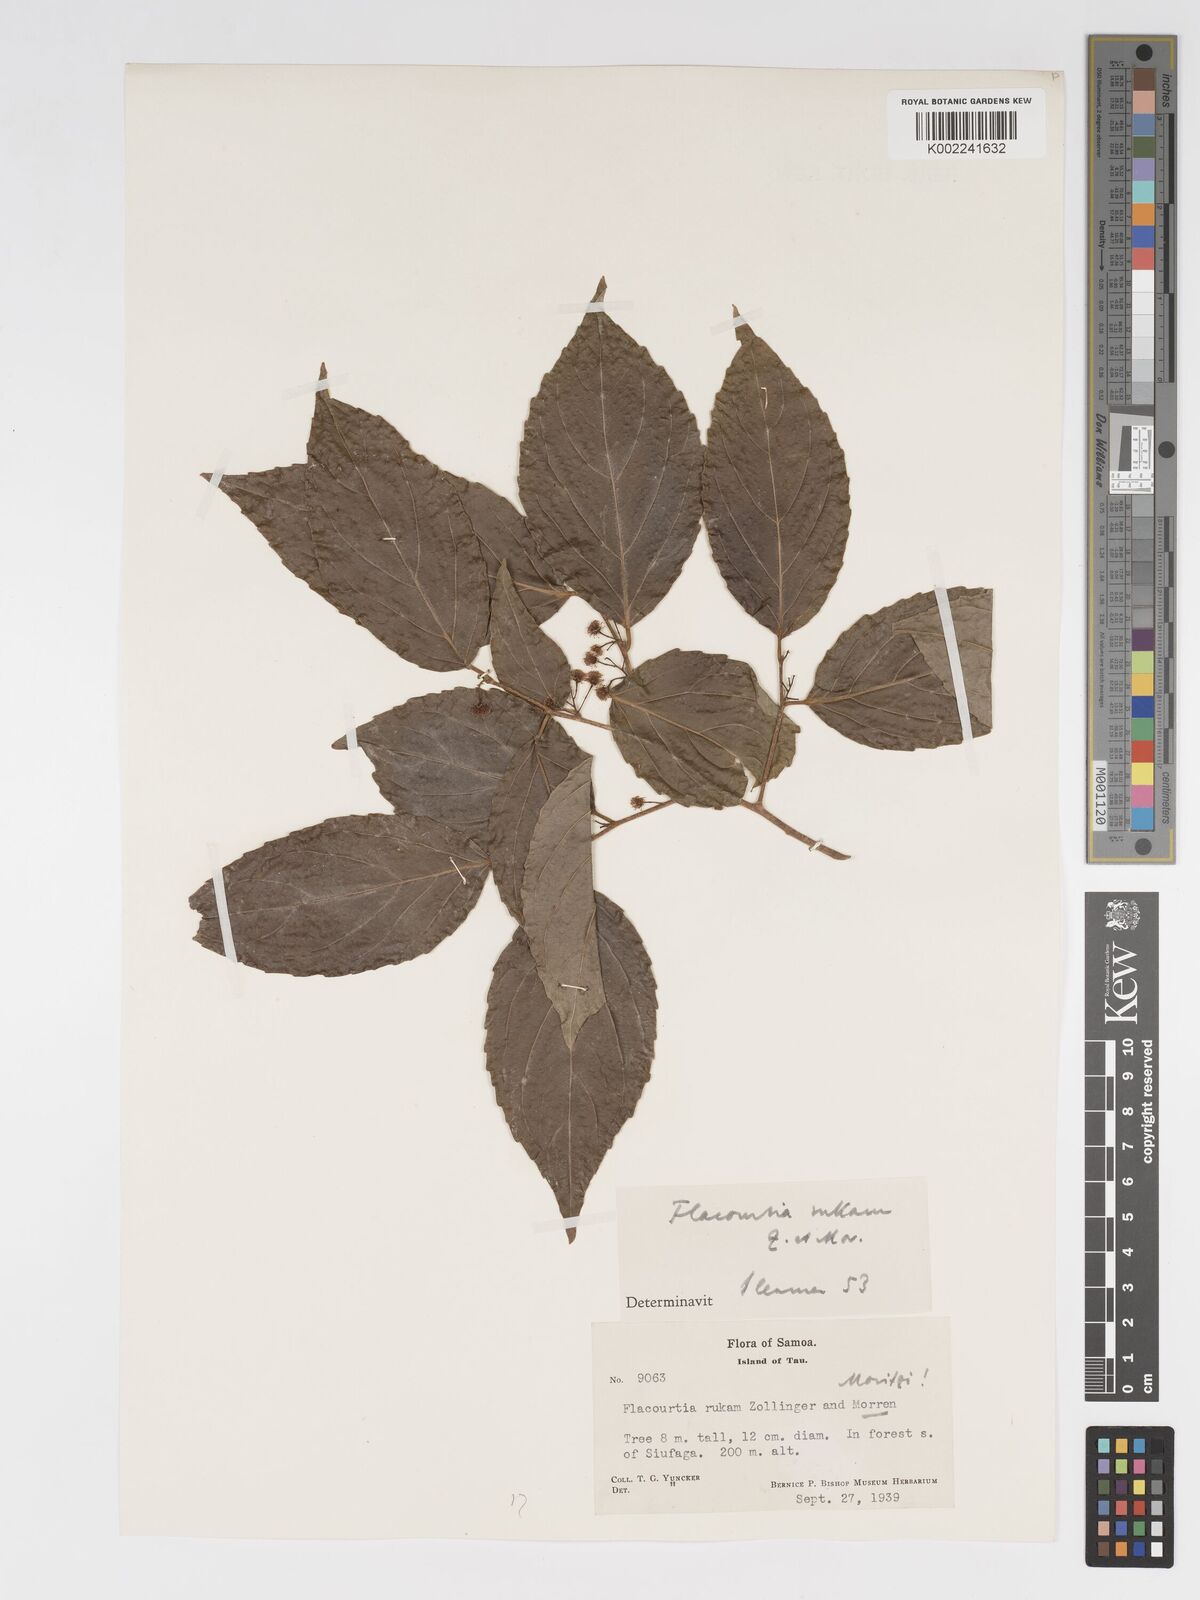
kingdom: Plantae
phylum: Tracheophyta
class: Magnoliopsida
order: Malpighiales
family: Salicaceae
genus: Flacourtia
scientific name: Flacourtia rukam
